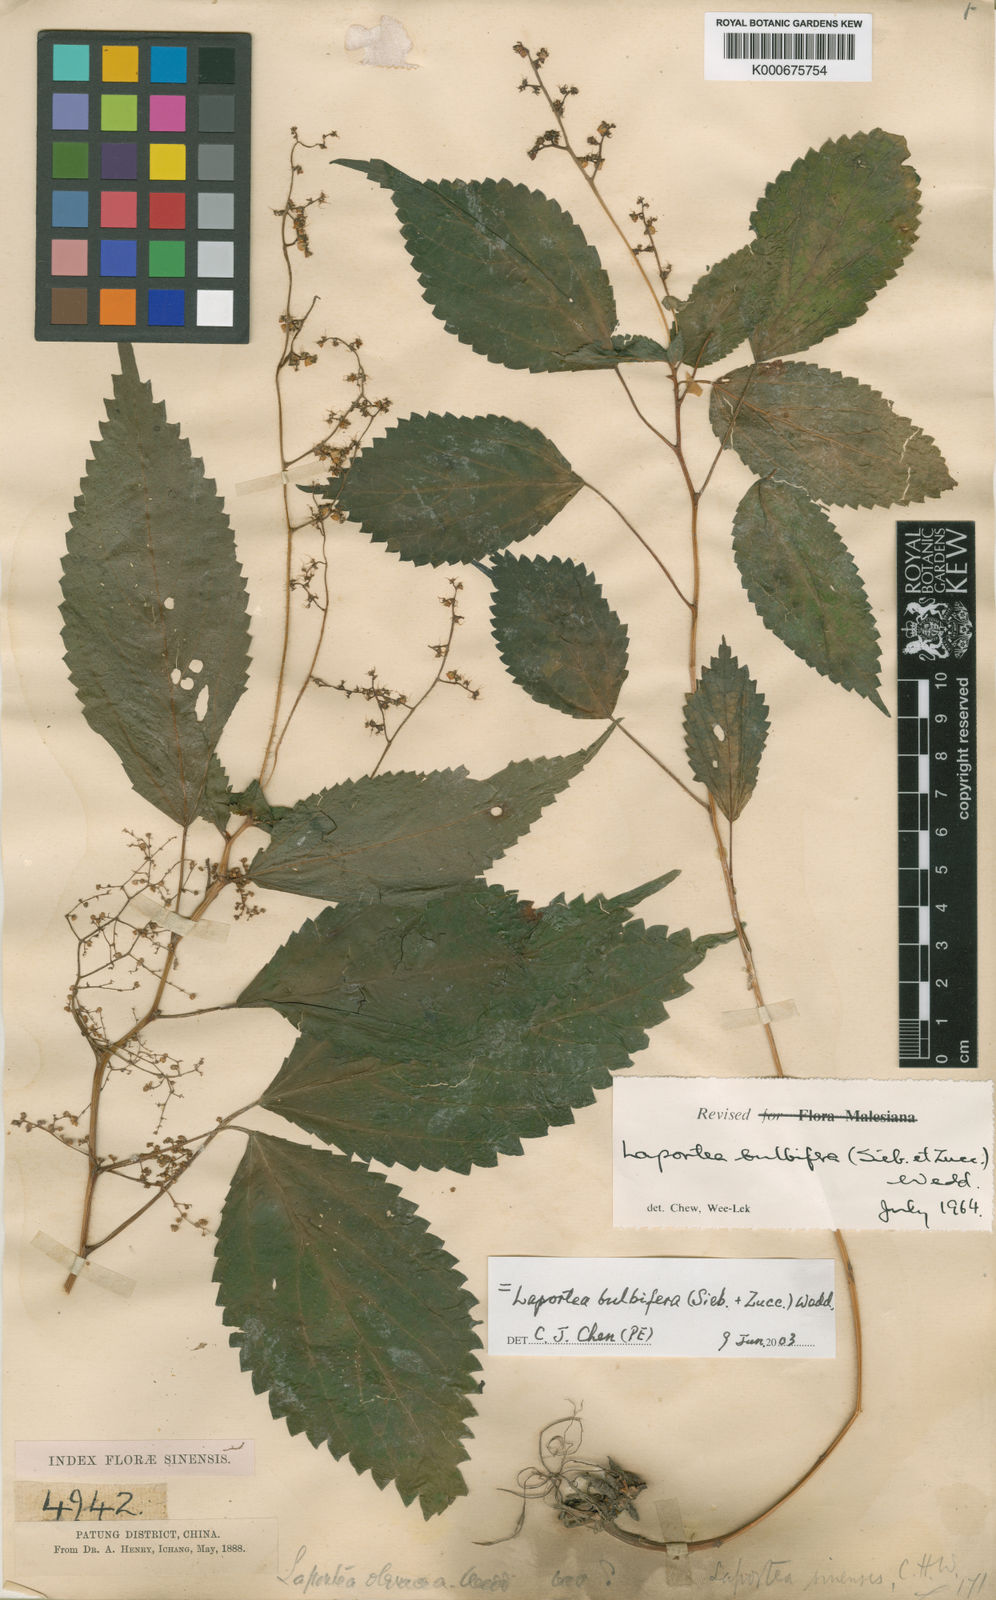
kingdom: Plantae
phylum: Tracheophyta
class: Magnoliopsida
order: Rosales
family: Urticaceae
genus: Laportea
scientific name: Laportea bulbifera
